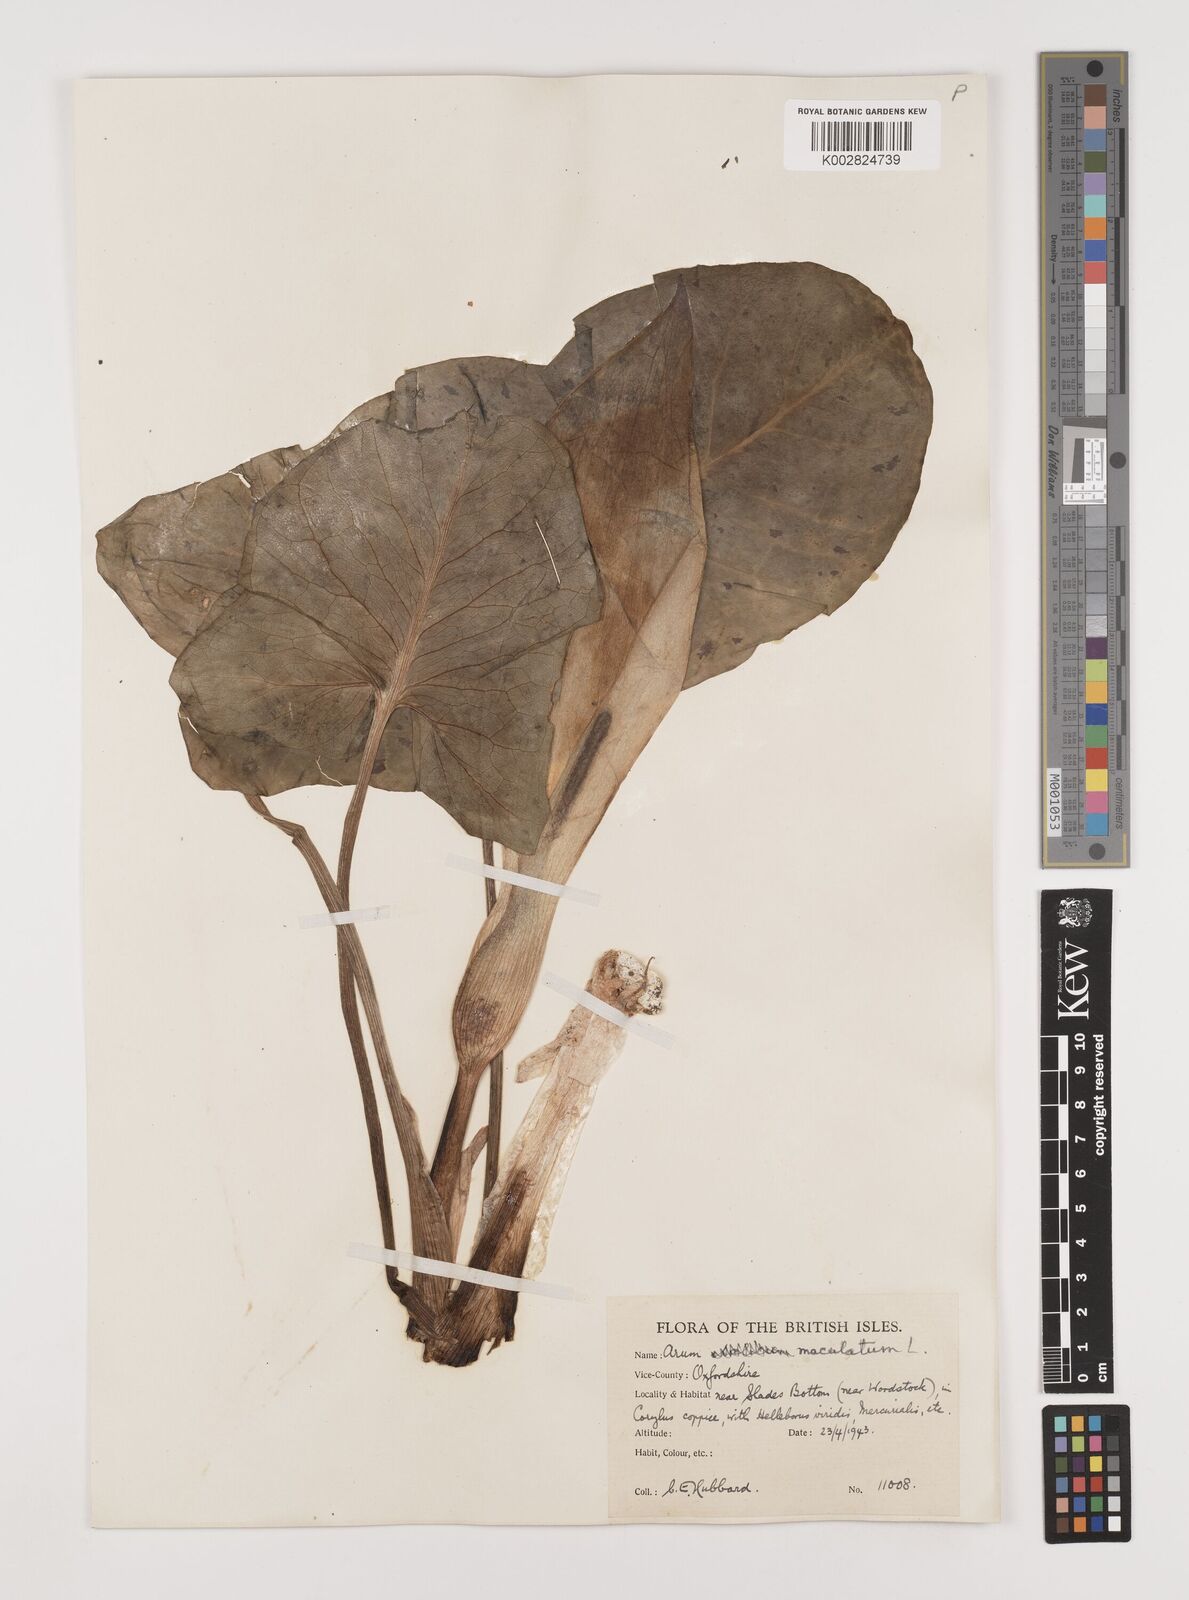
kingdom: Plantae
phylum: Tracheophyta
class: Liliopsida
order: Alismatales
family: Araceae
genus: Arum
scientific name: Arum maculatum
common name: Lords-and-ladies
